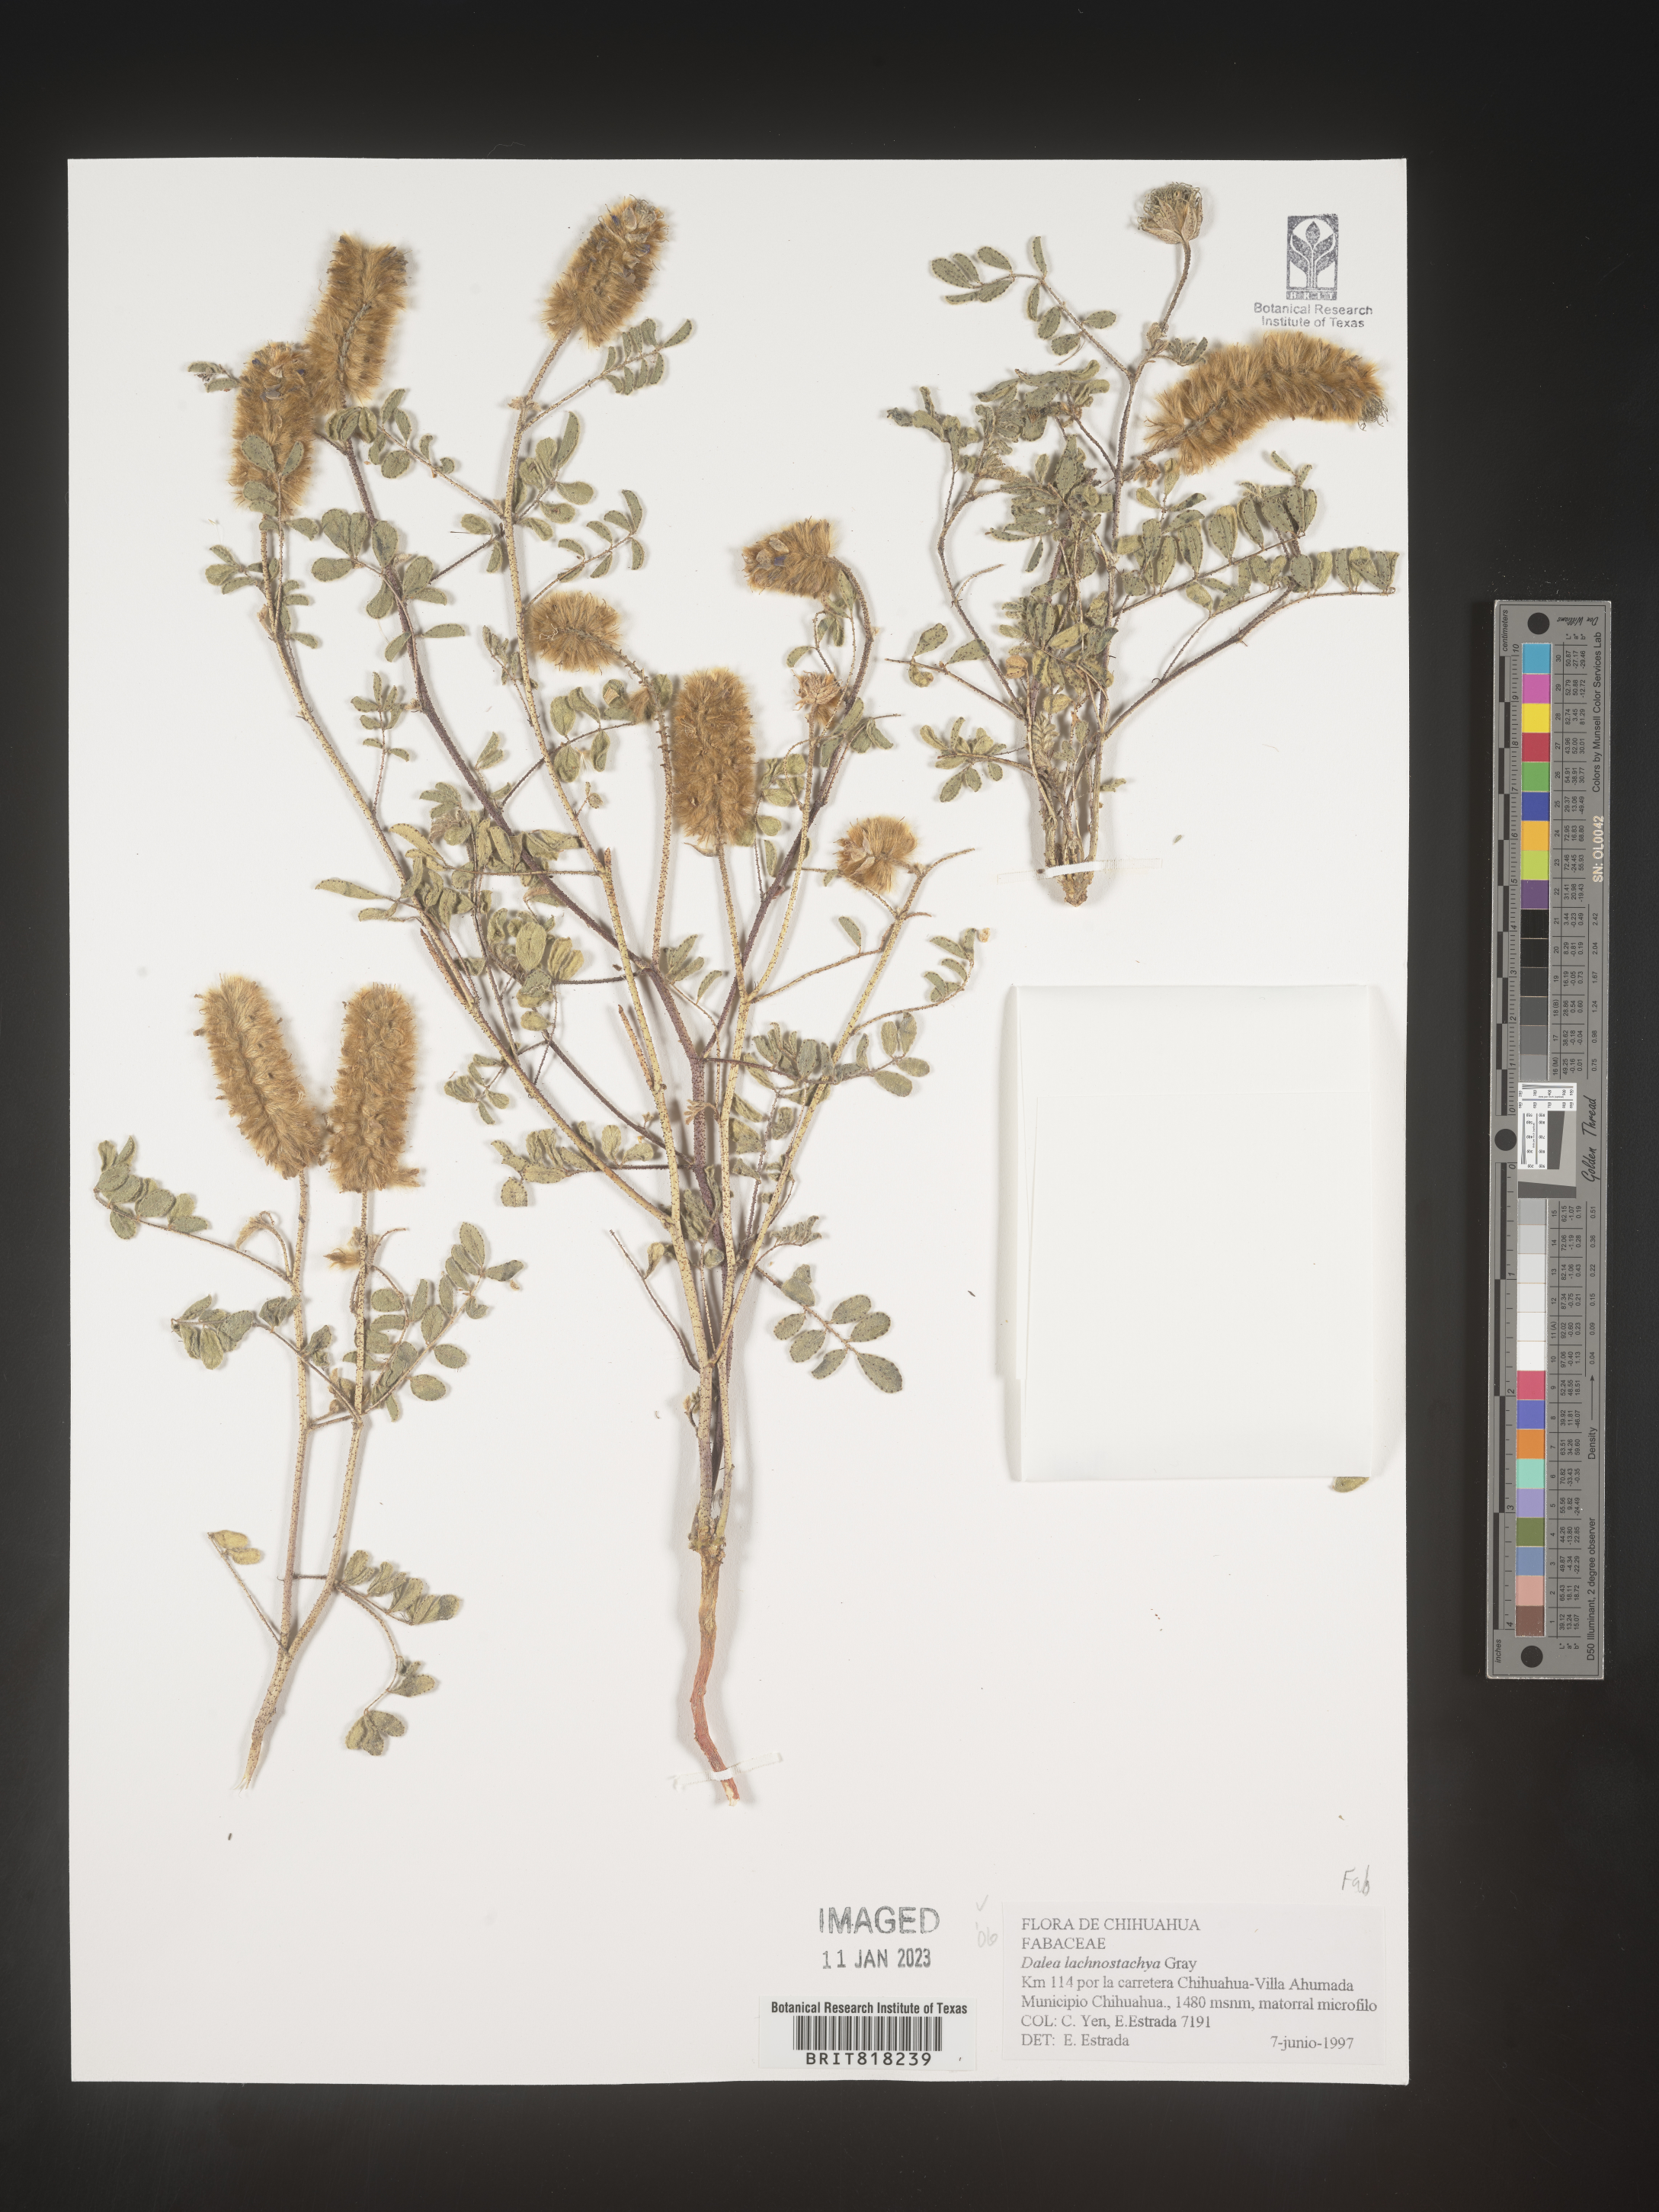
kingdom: Plantae
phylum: Tracheophyta
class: Magnoliopsida
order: Fabales
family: Fabaceae
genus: Dalea
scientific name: Dalea
